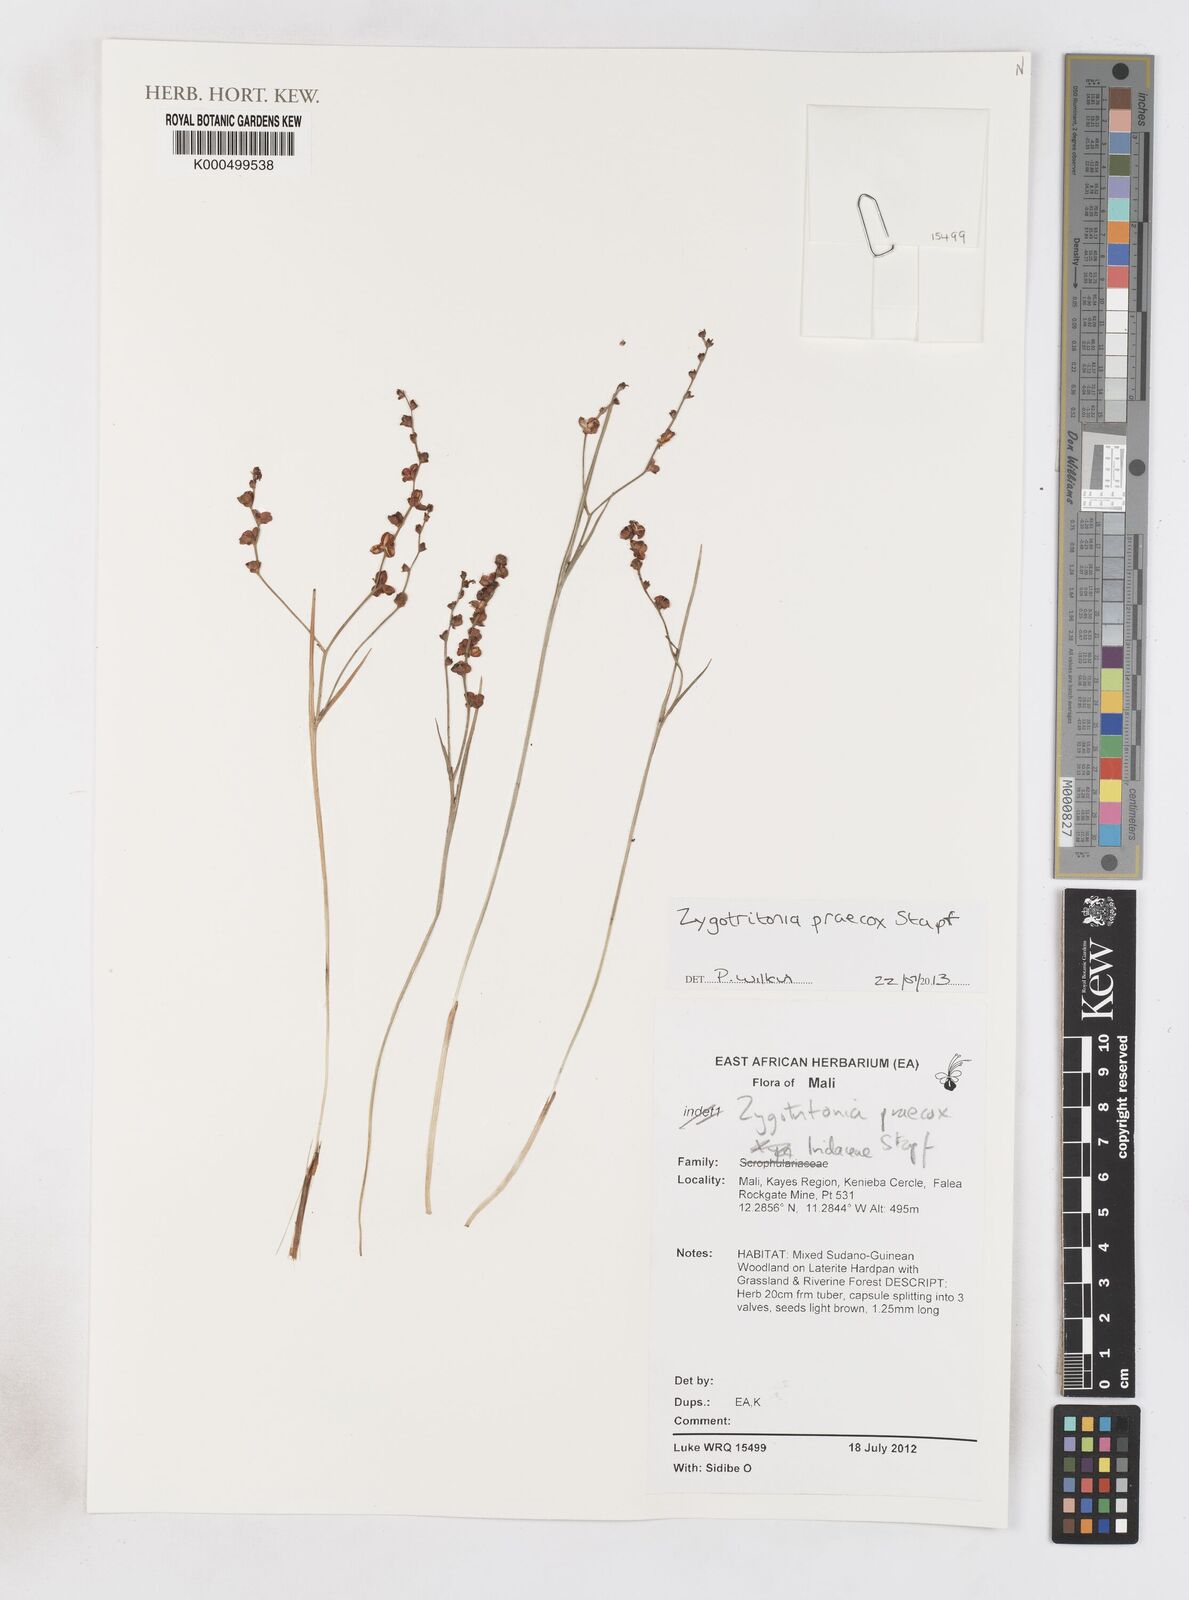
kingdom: Plantae
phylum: Tracheophyta
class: Liliopsida
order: Asparagales
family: Iridaceae
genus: Zygotritonia
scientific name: Zygotritonia praecox
